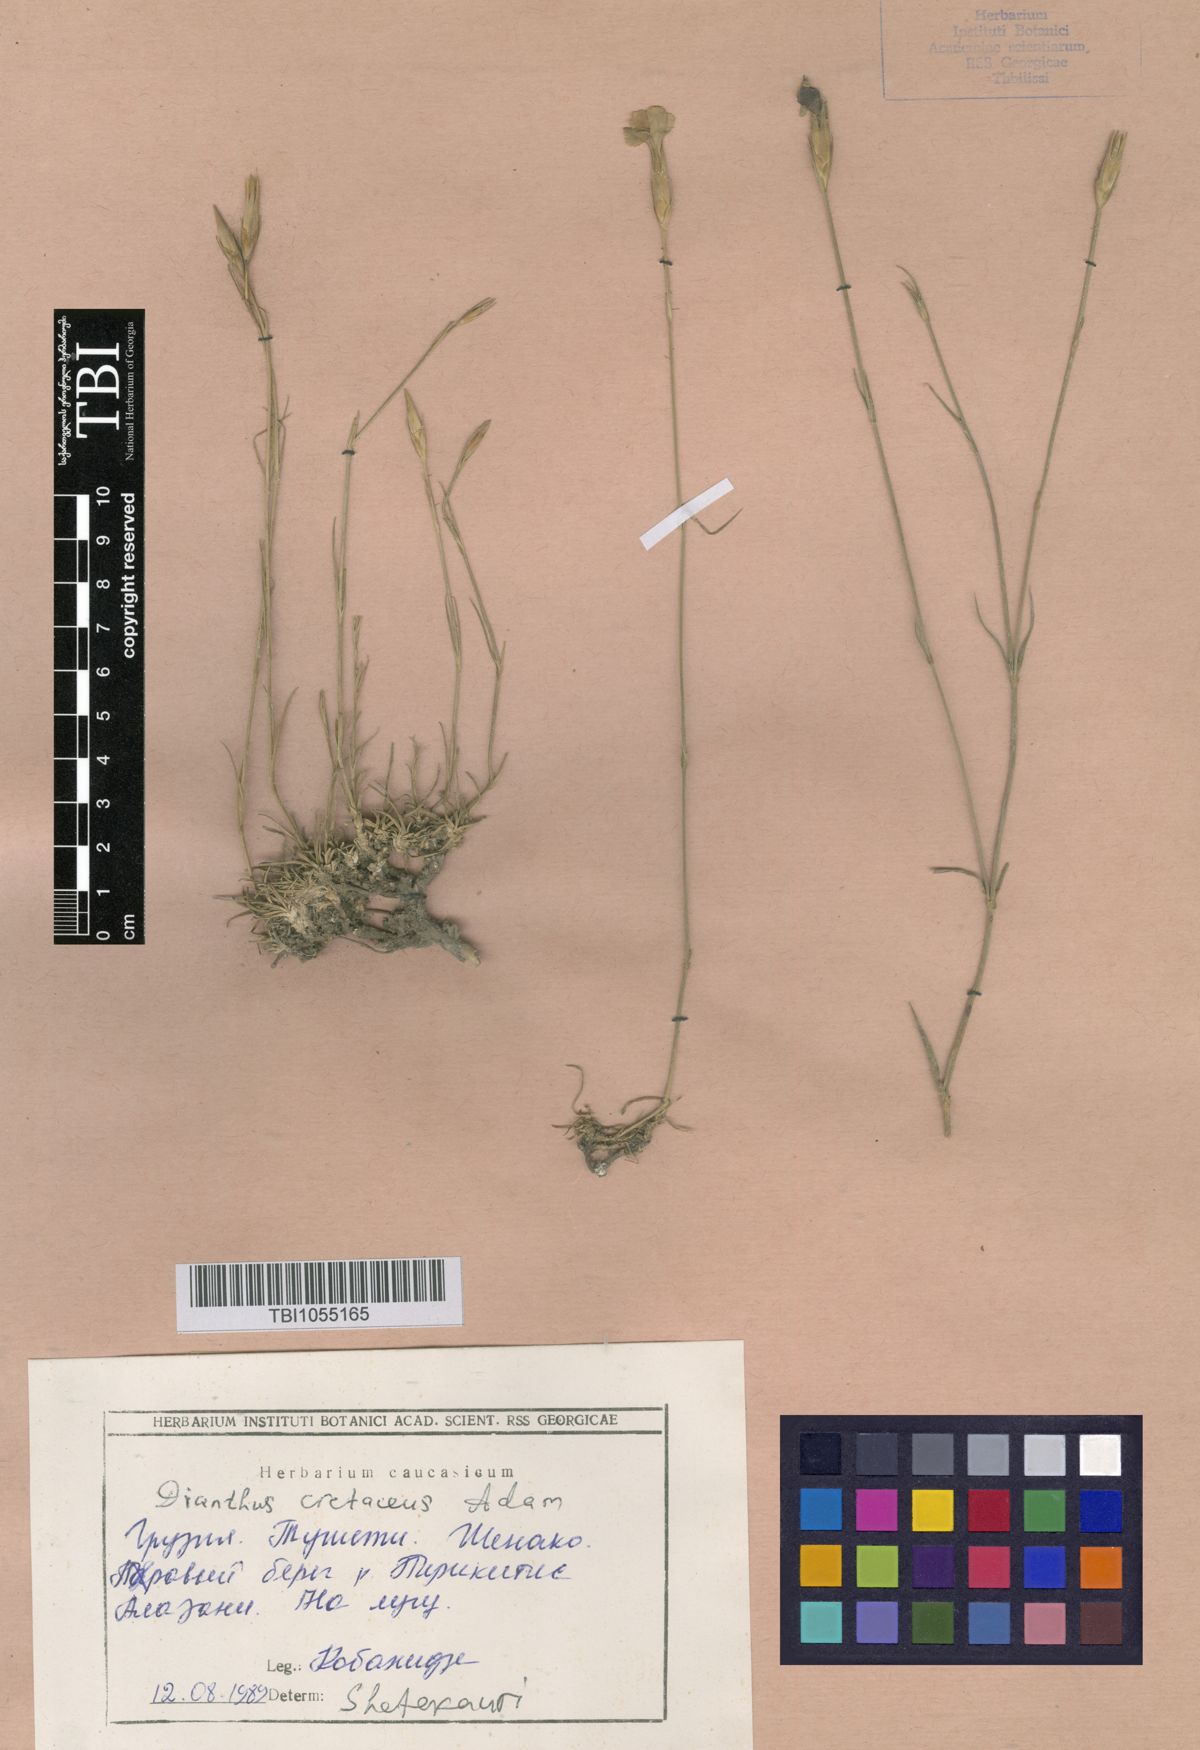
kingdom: Plantae
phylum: Tracheophyta
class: Magnoliopsida
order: Caryophyllales
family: Caryophyllaceae
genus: Dianthus
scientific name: Dianthus cretaceus
